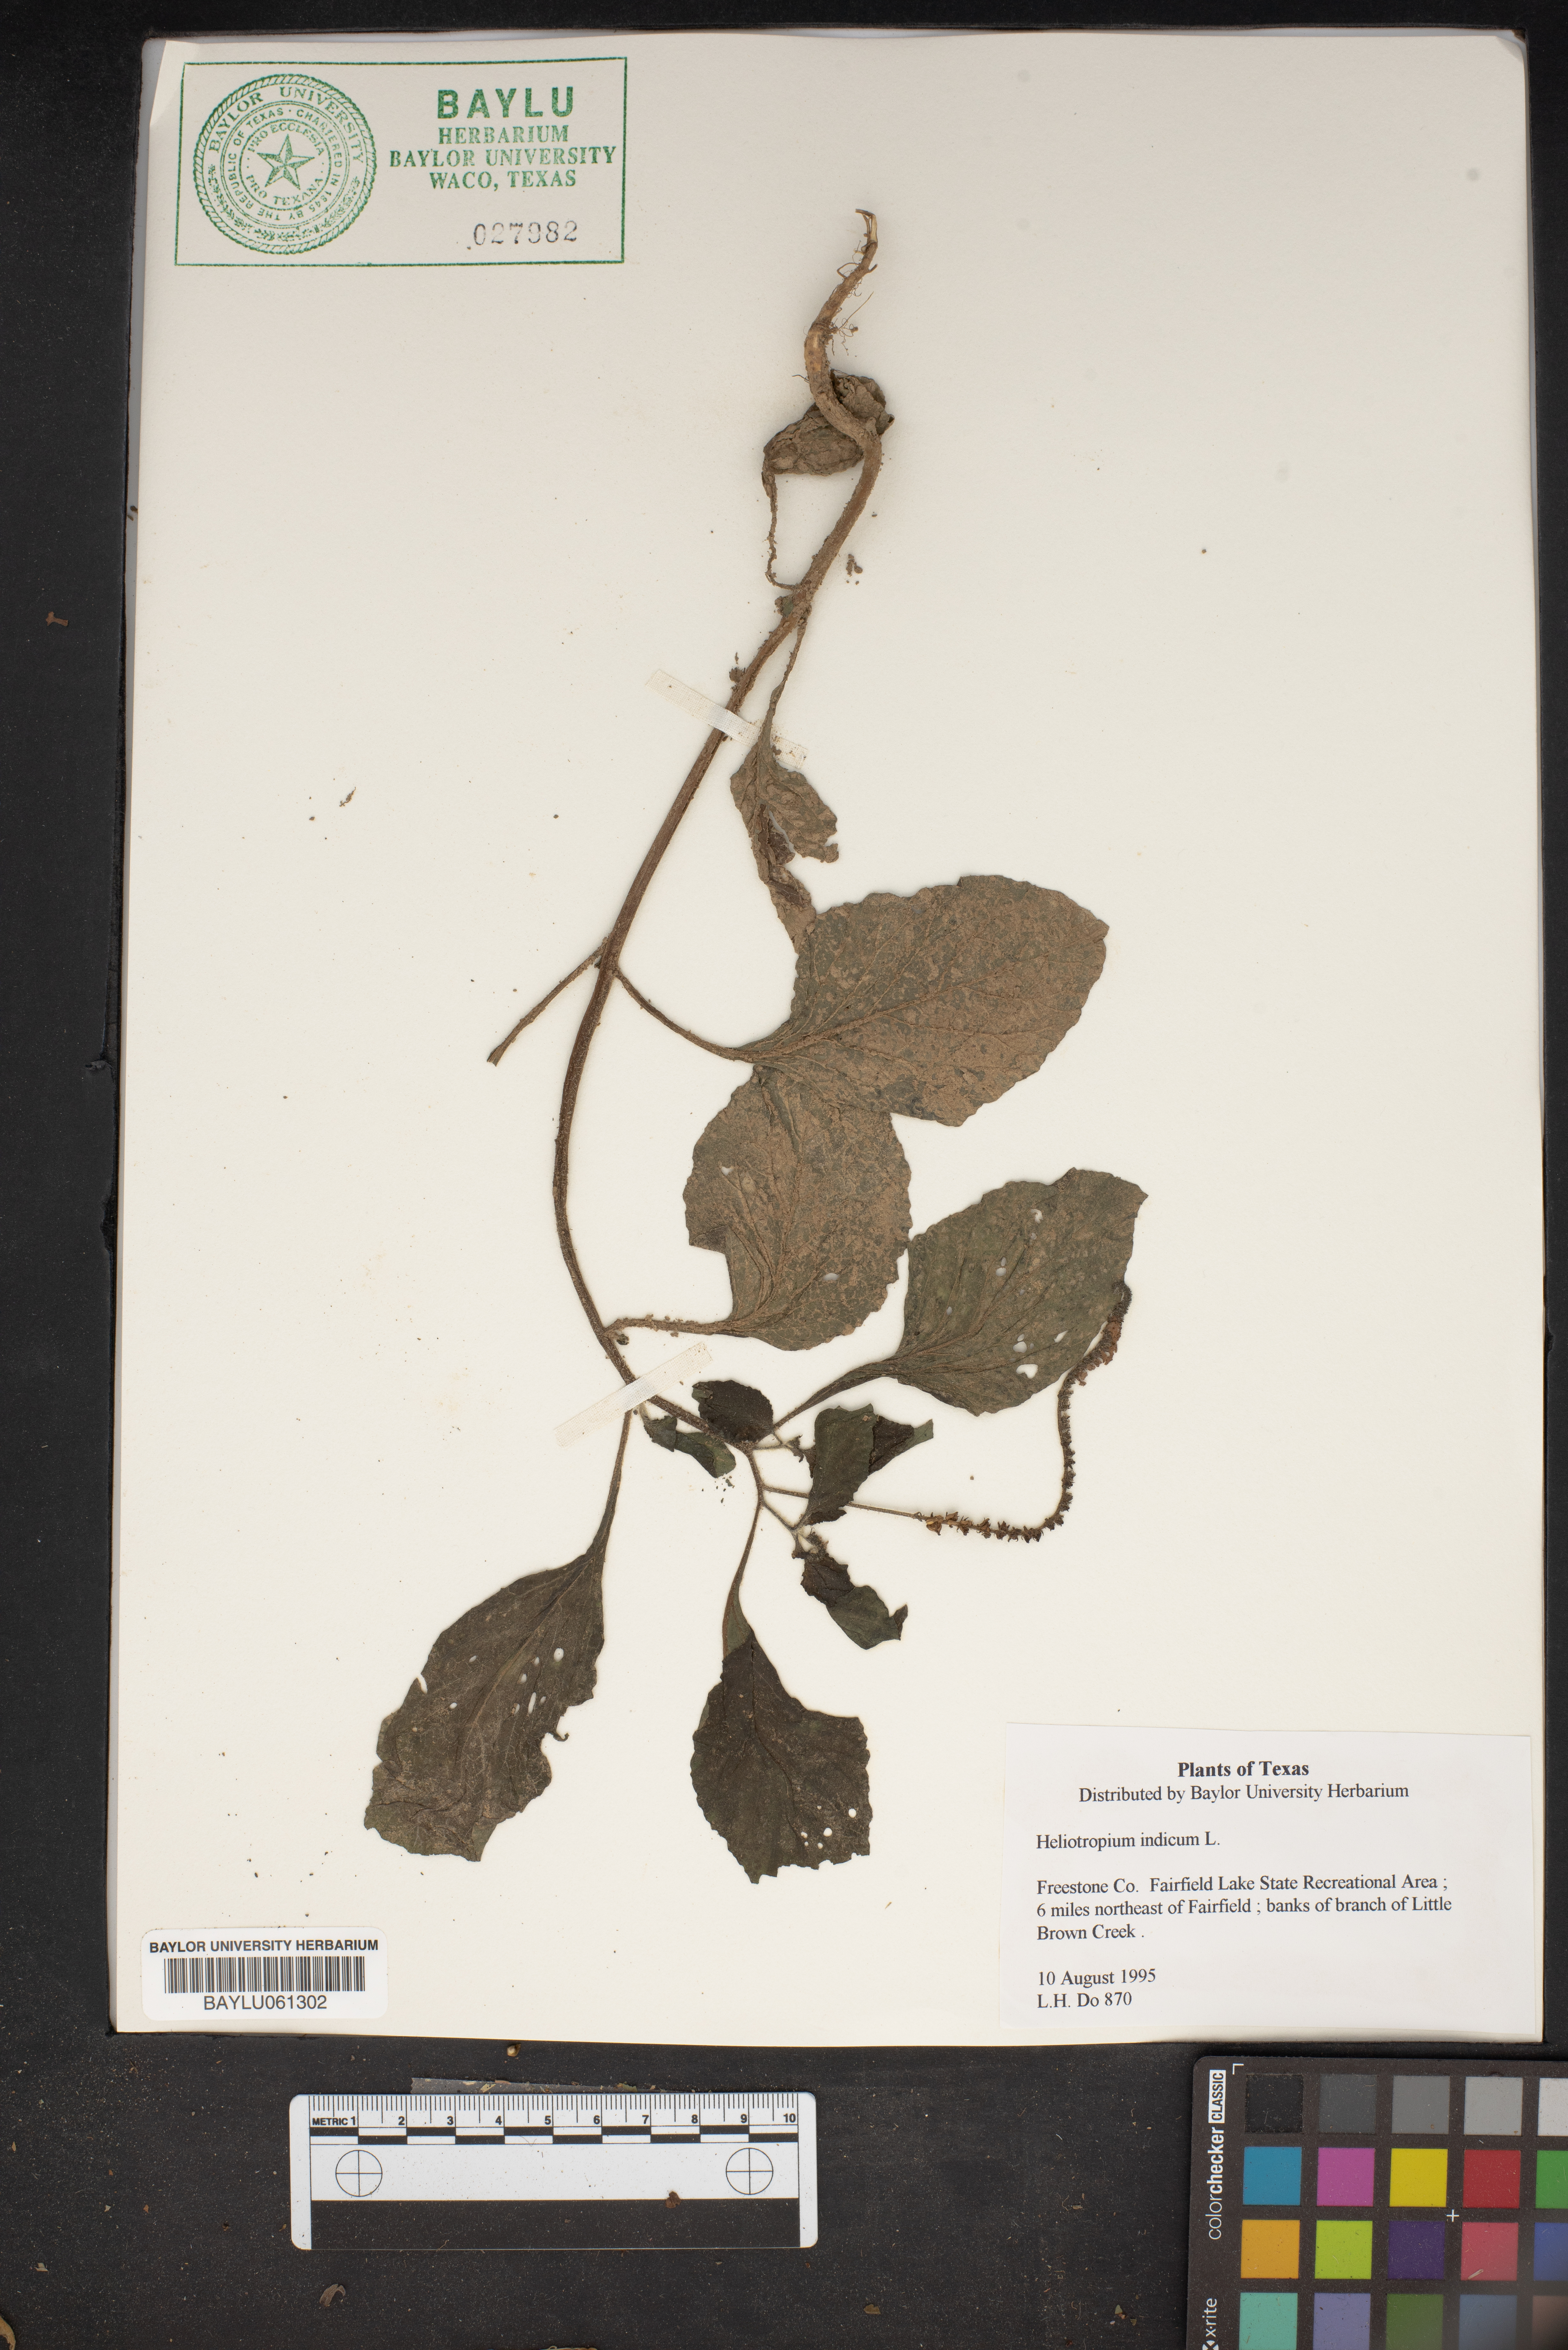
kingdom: Plantae
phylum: Tracheophyta
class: Magnoliopsida
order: Boraginales
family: Heliotropiaceae
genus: Heliotropium
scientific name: Heliotropium indicum
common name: Indian heliotrope
